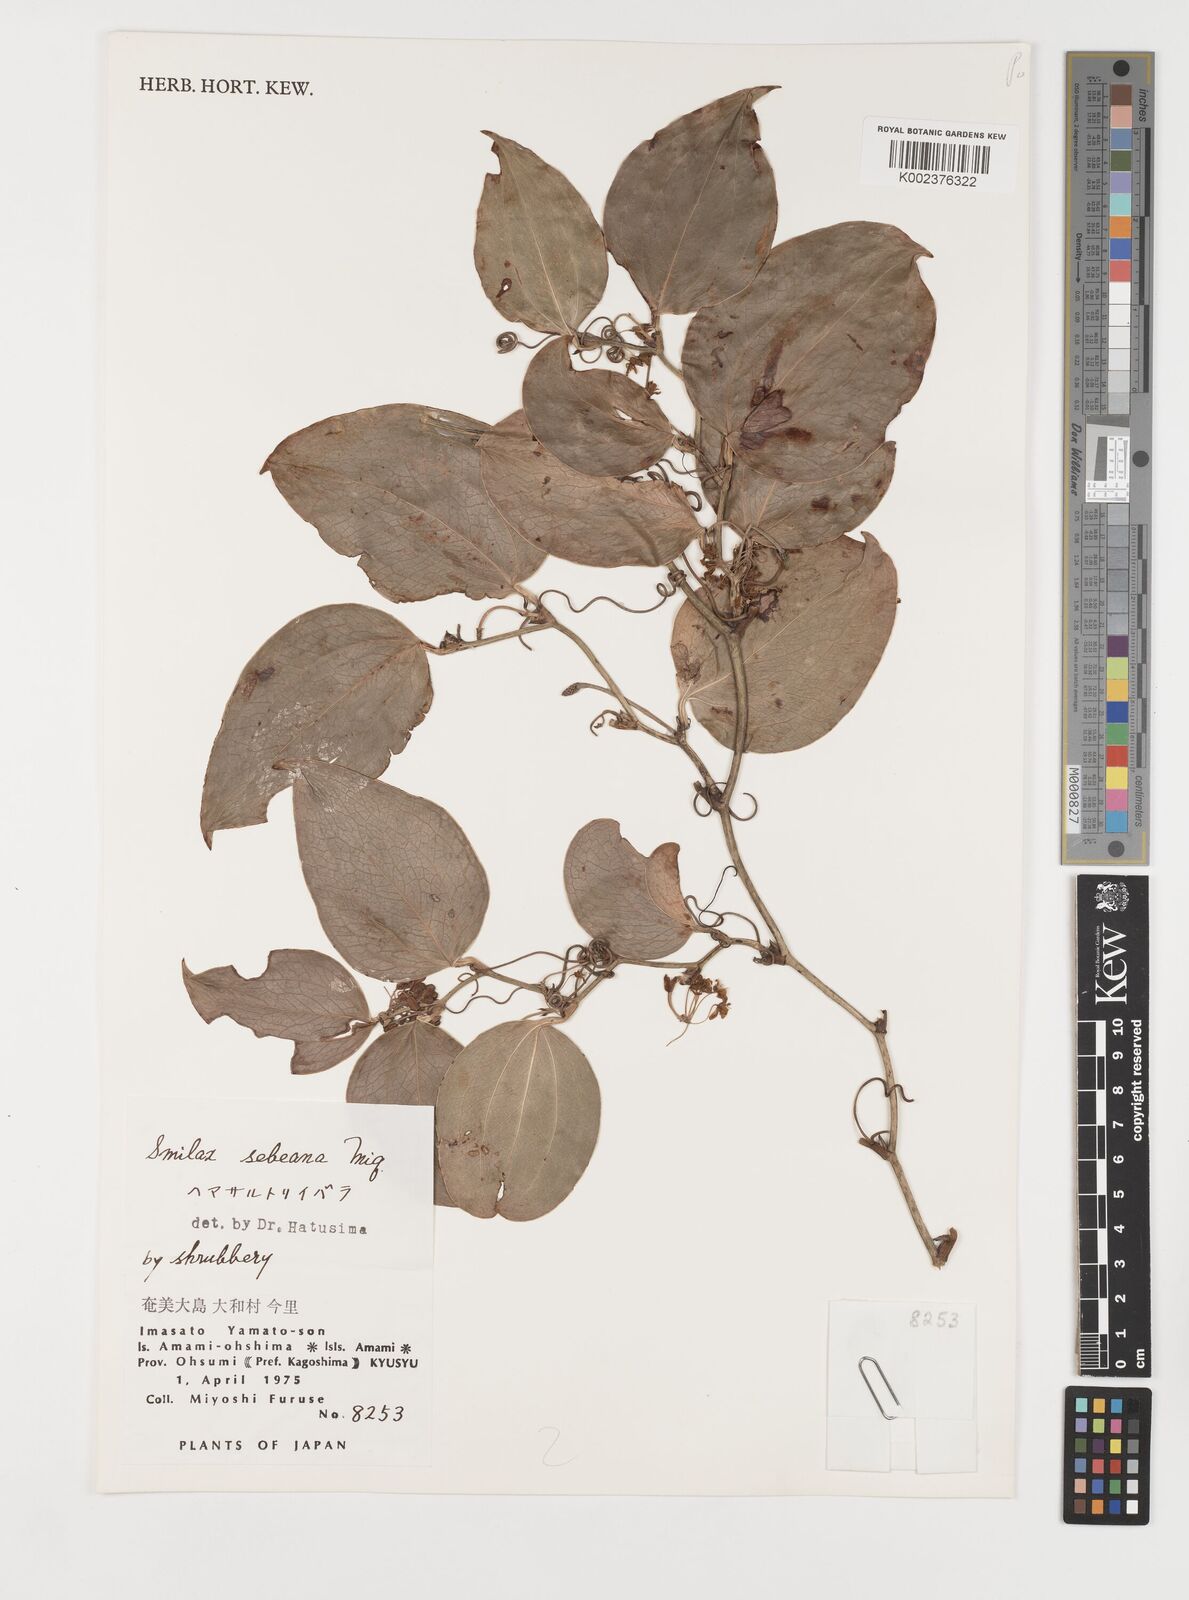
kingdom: Plantae
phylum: Tracheophyta
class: Liliopsida
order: Liliales
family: Smilacaceae
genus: Smilax
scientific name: Smilax sebeana
